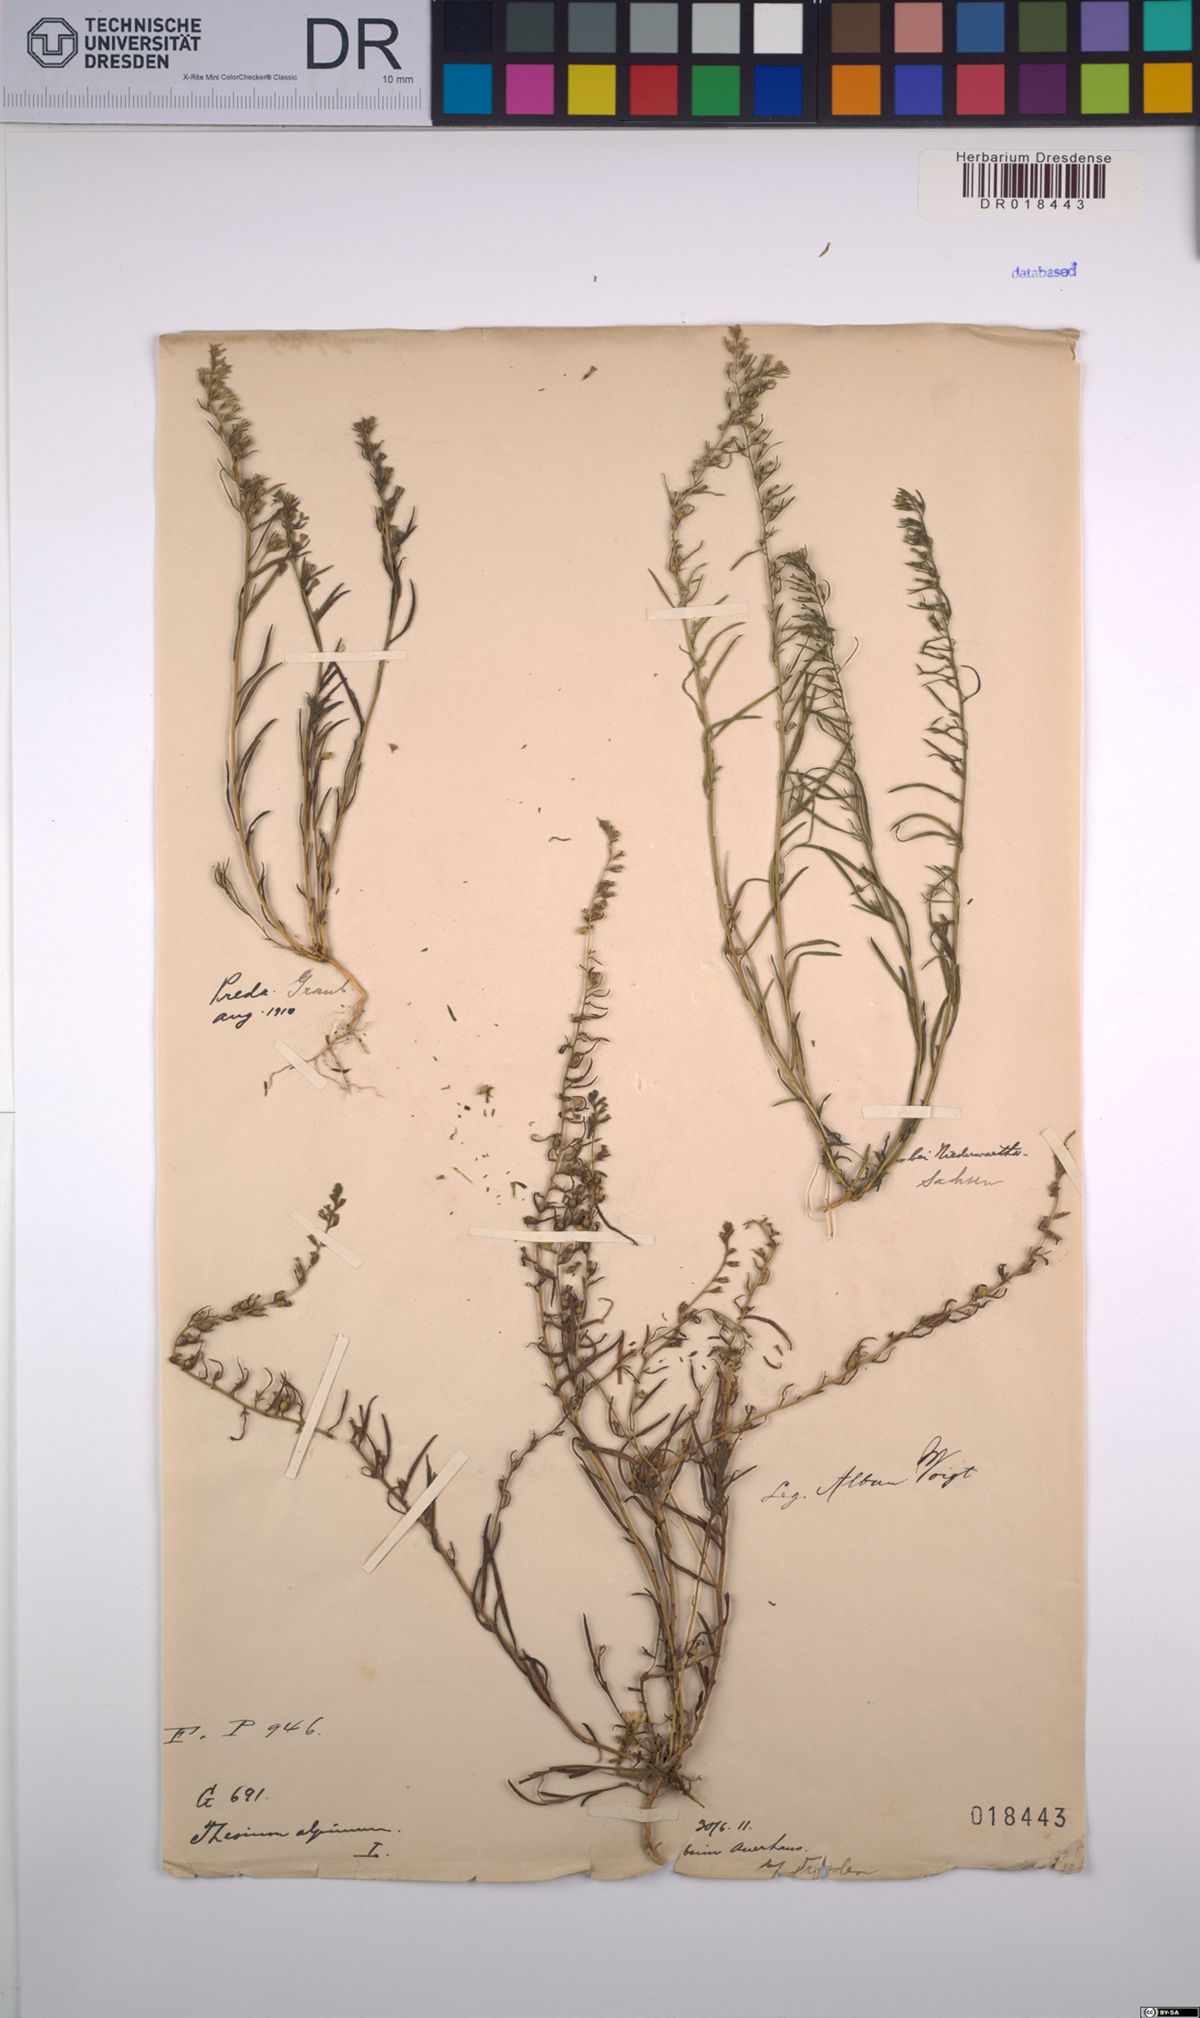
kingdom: Plantae
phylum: Tracheophyta
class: Magnoliopsida
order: Santalales
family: Thesiaceae
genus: Thesium
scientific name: Thesium alpinum
